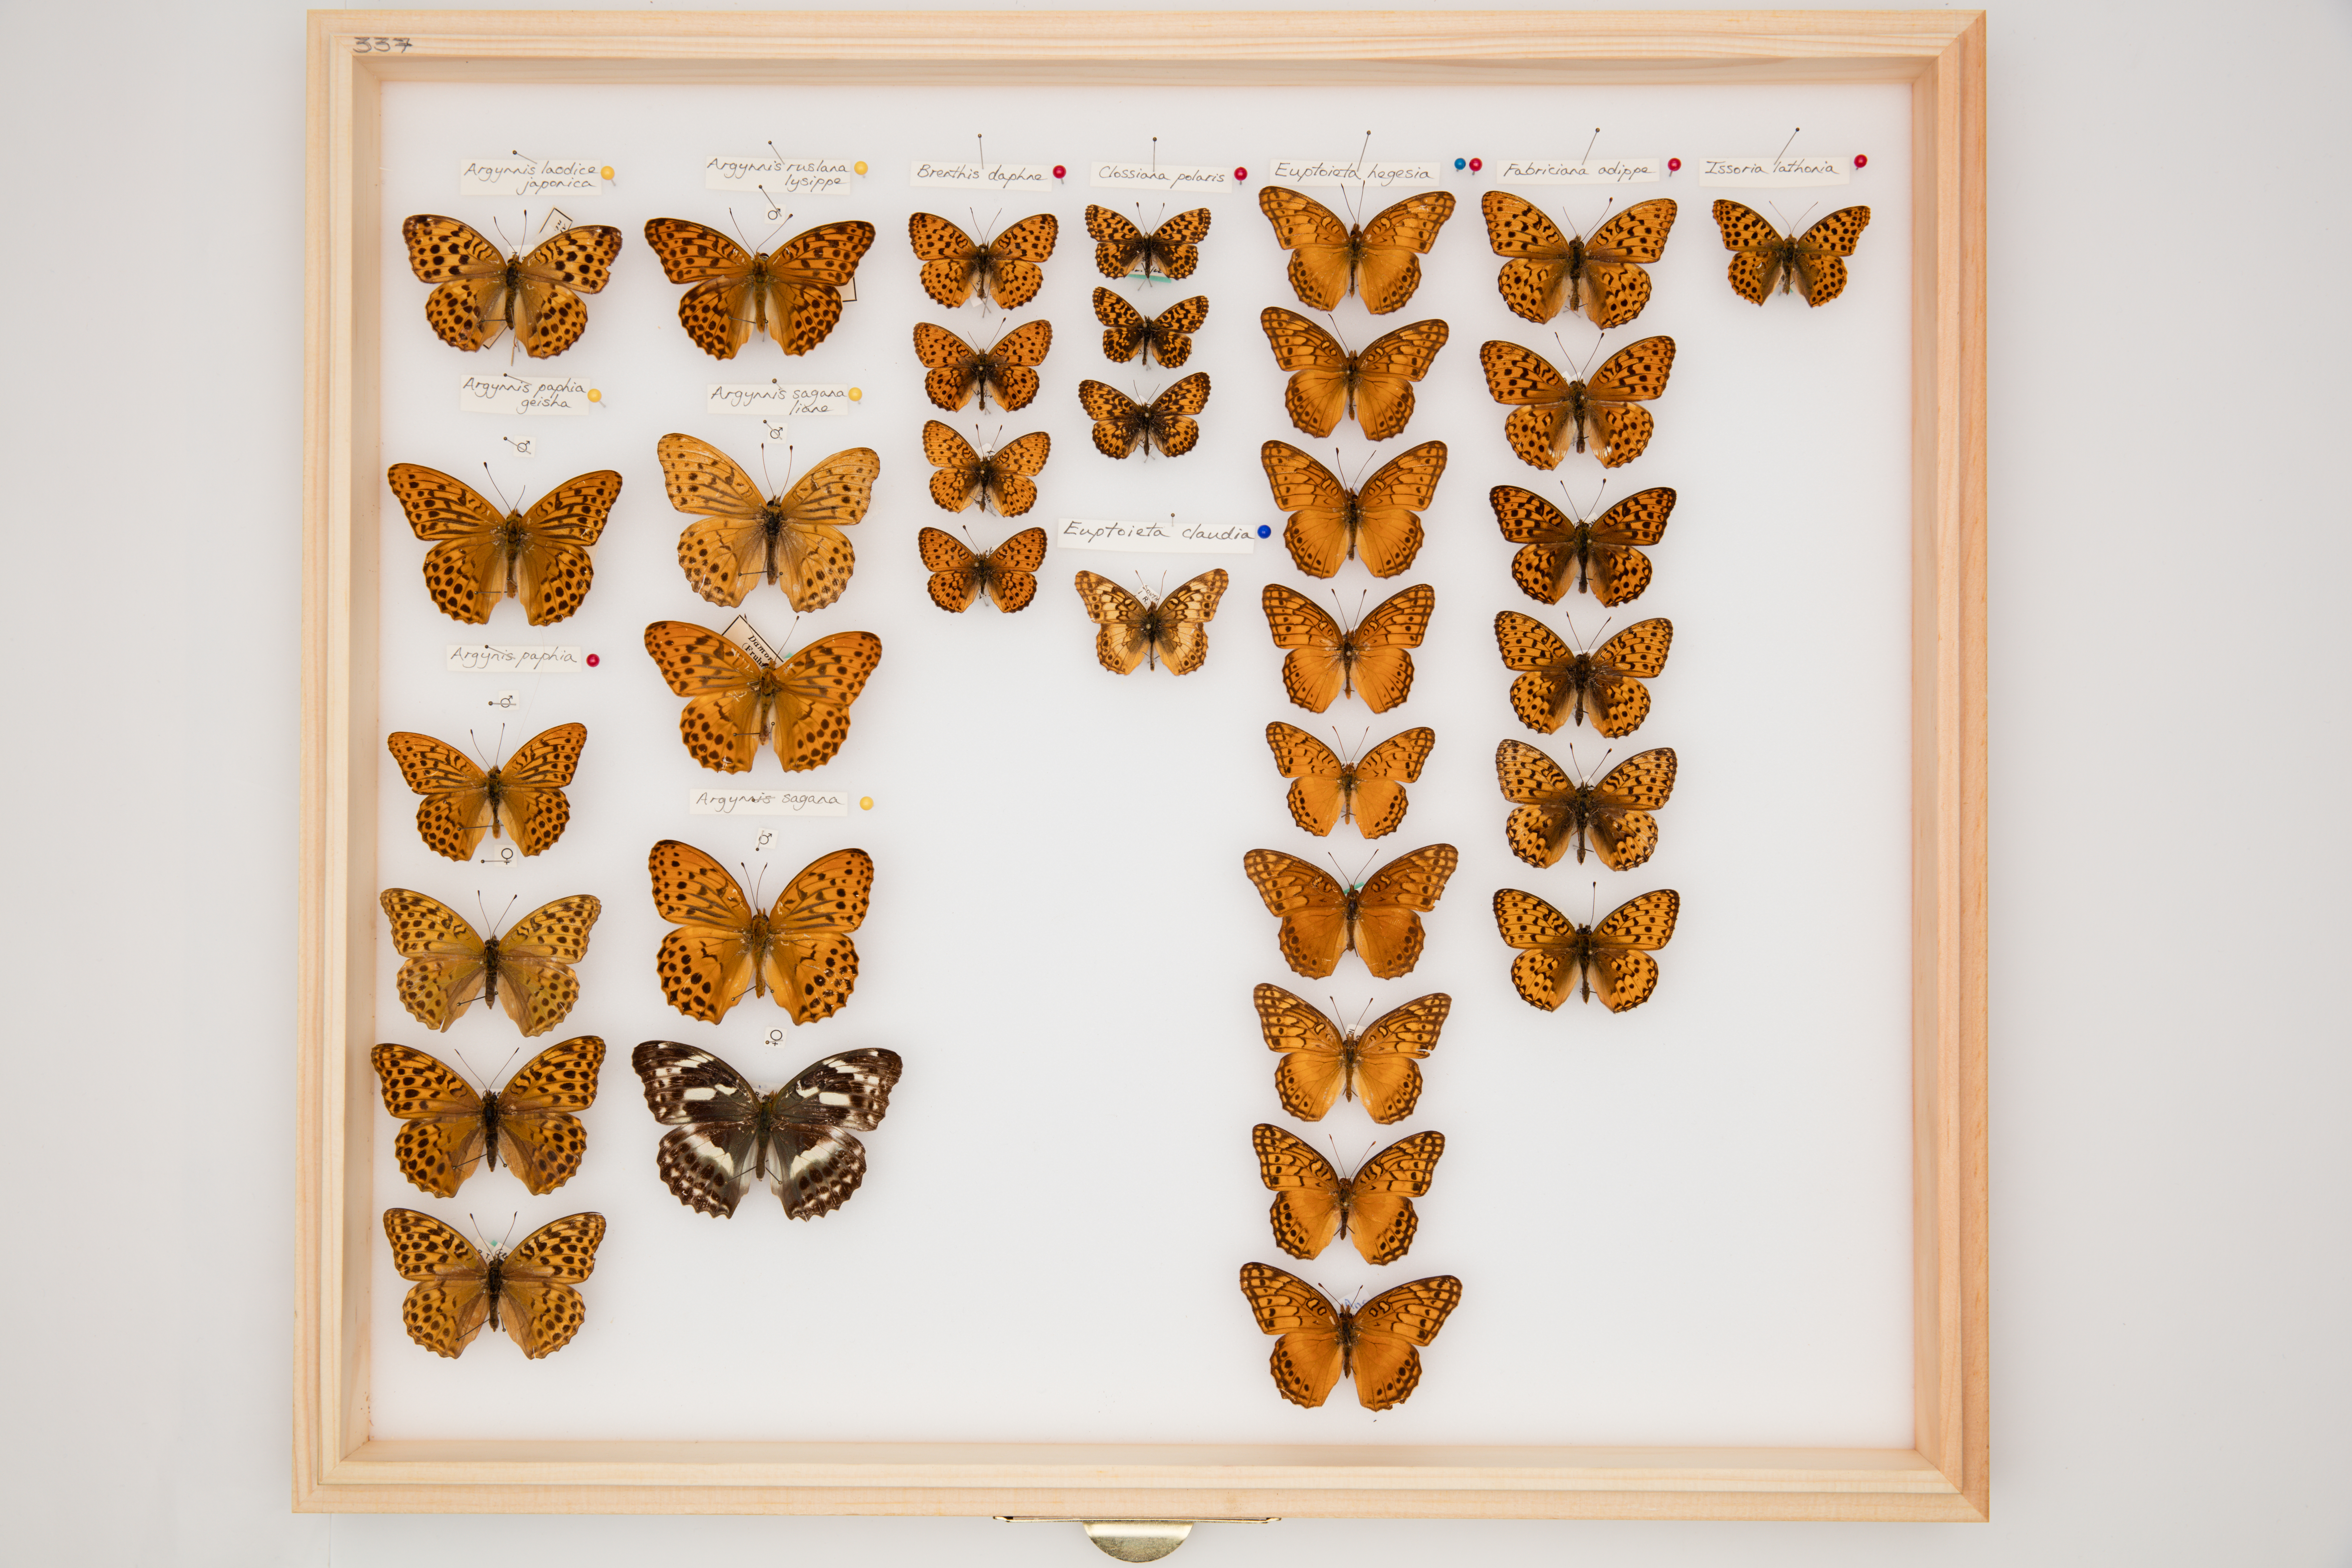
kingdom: Animalia
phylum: Arthropoda
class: Insecta
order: Lepidoptera
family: Nymphalidae
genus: Argyronome
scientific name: Argyronome ruslana
